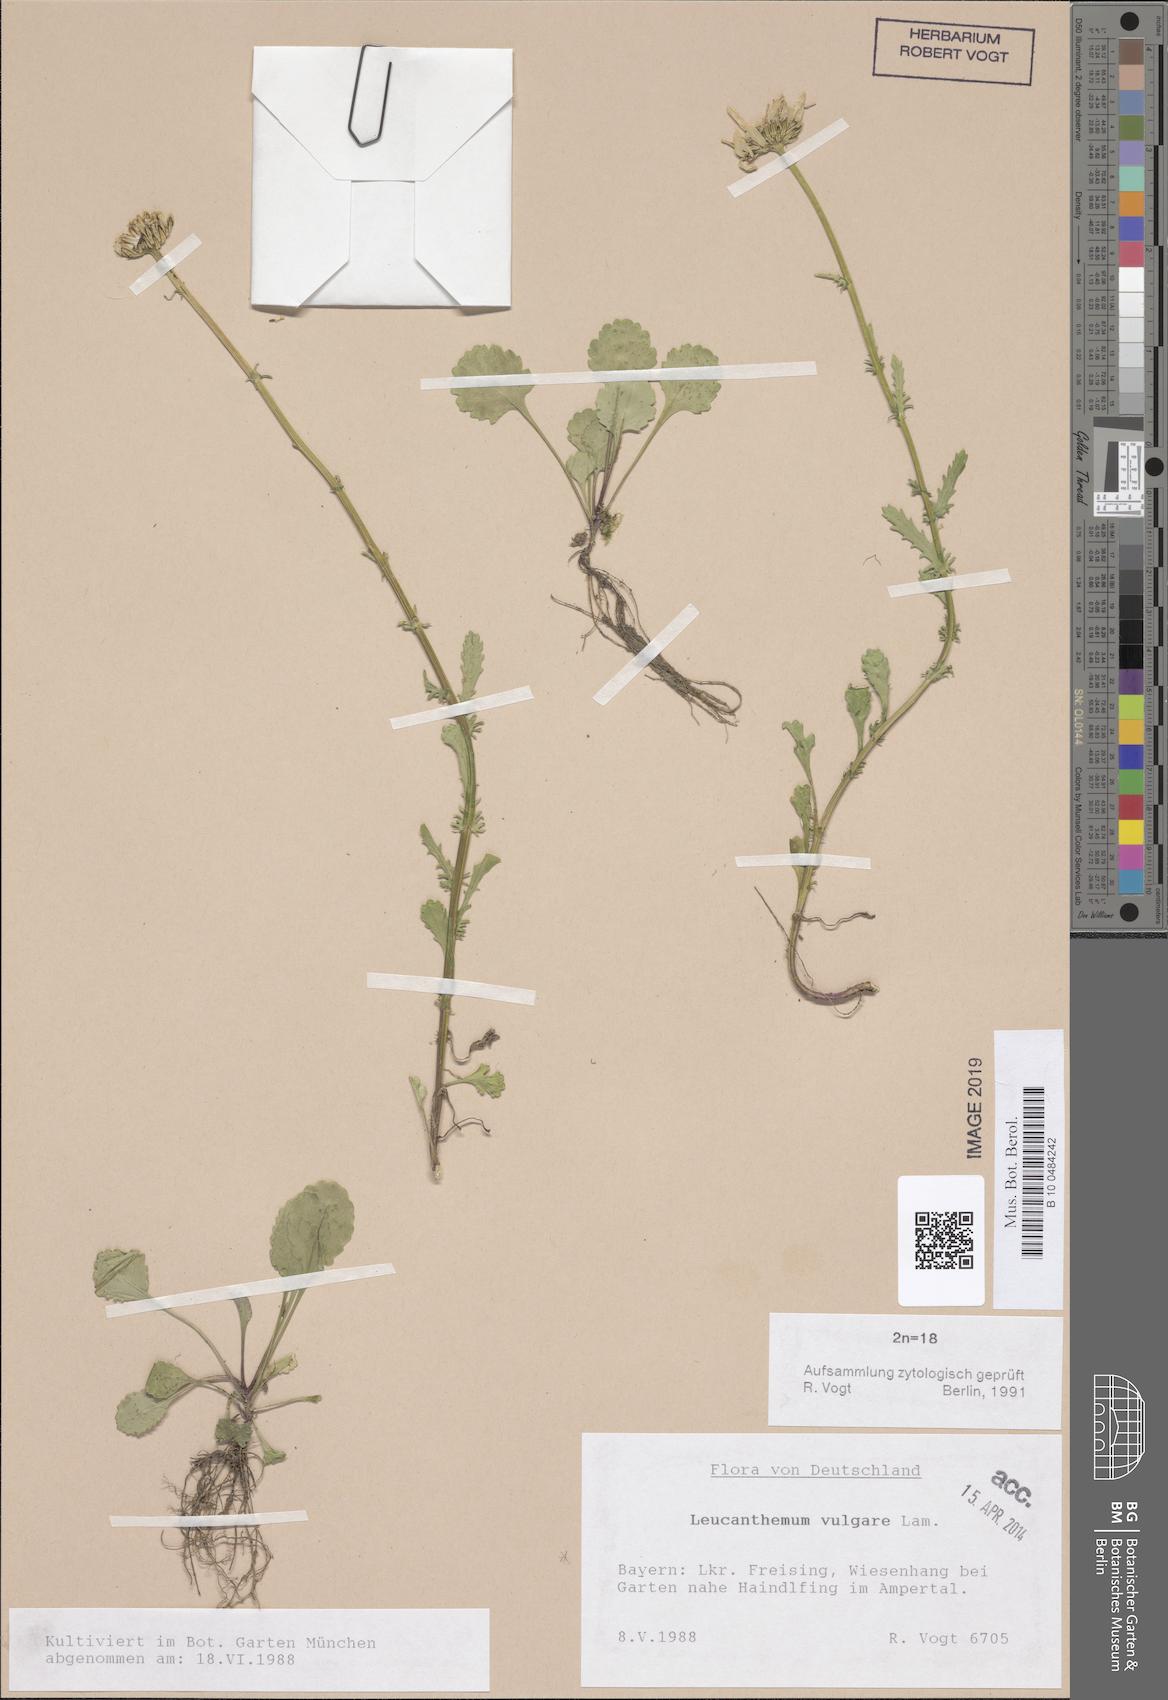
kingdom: Plantae
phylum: Tracheophyta
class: Magnoliopsida
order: Asterales
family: Asteraceae
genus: Leucanthemum
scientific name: Leucanthemum vulgare
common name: Oxeye daisy
